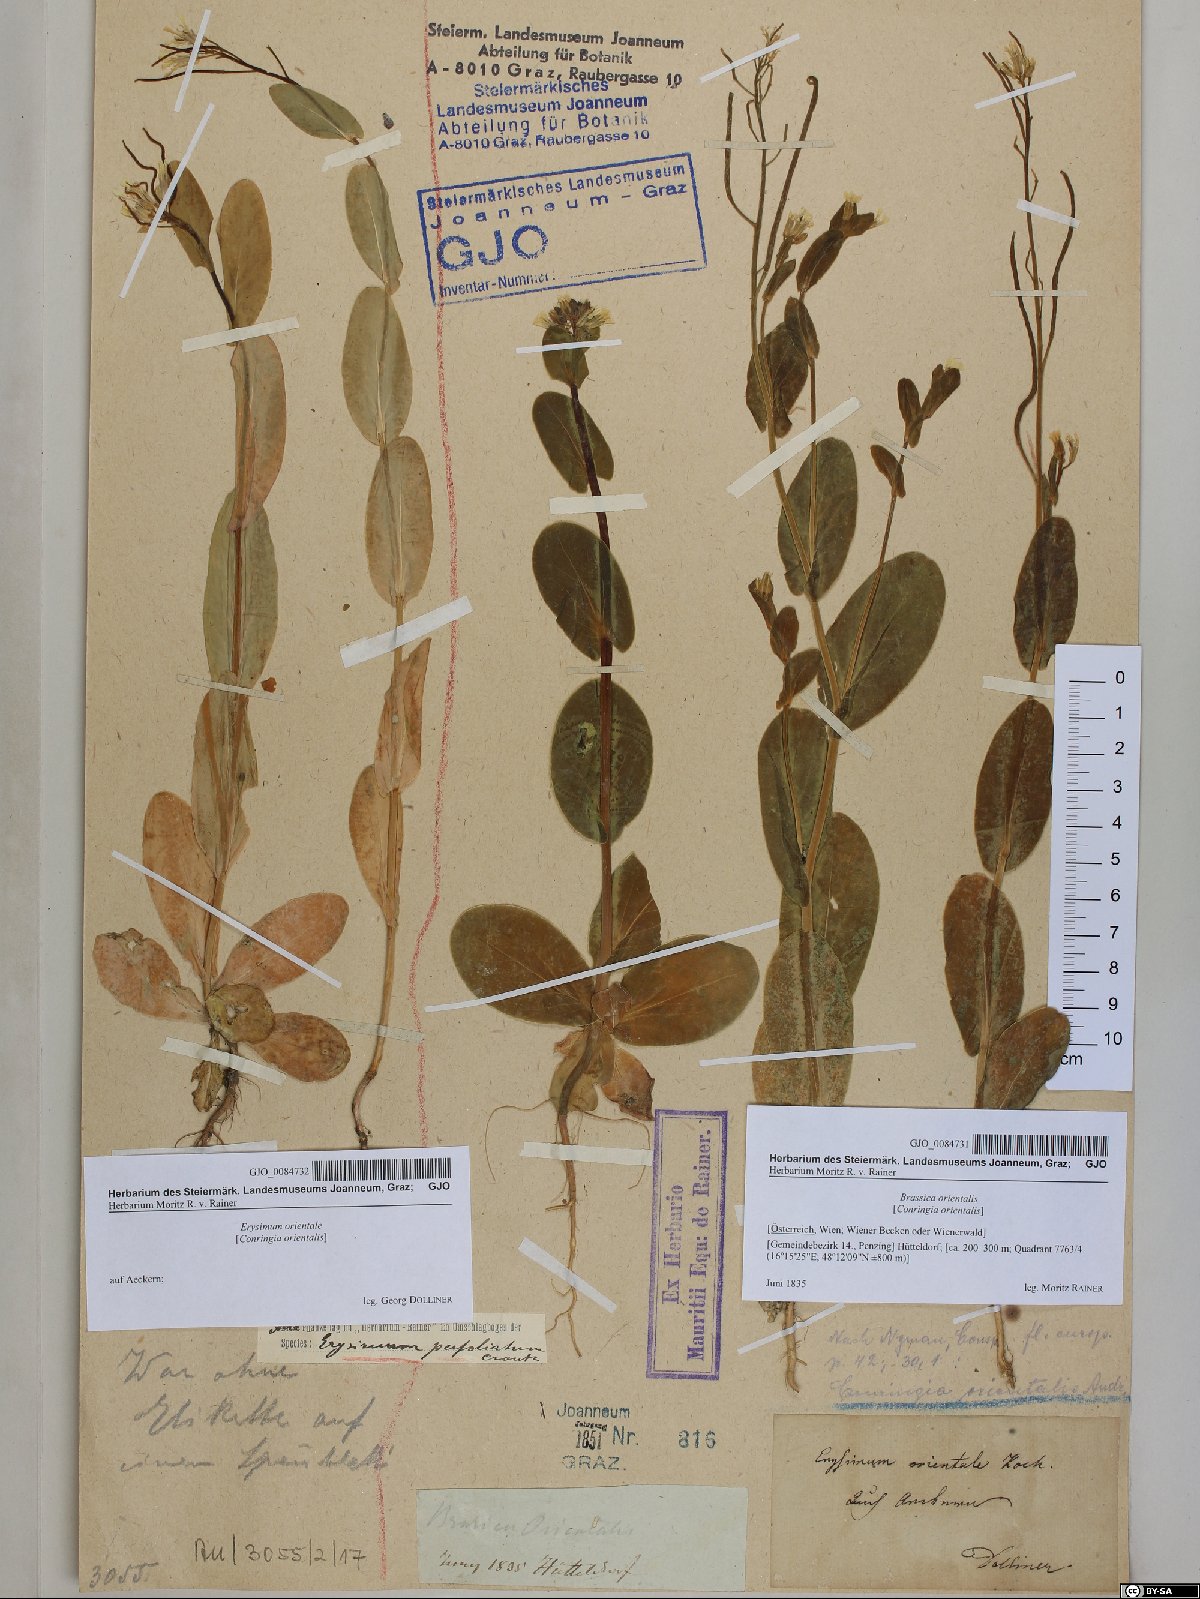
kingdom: Plantae
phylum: Tracheophyta
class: Magnoliopsida
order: Brassicales
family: Brassicaceae
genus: Conringia
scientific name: Conringia orientalis
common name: Hare's ear mustard
